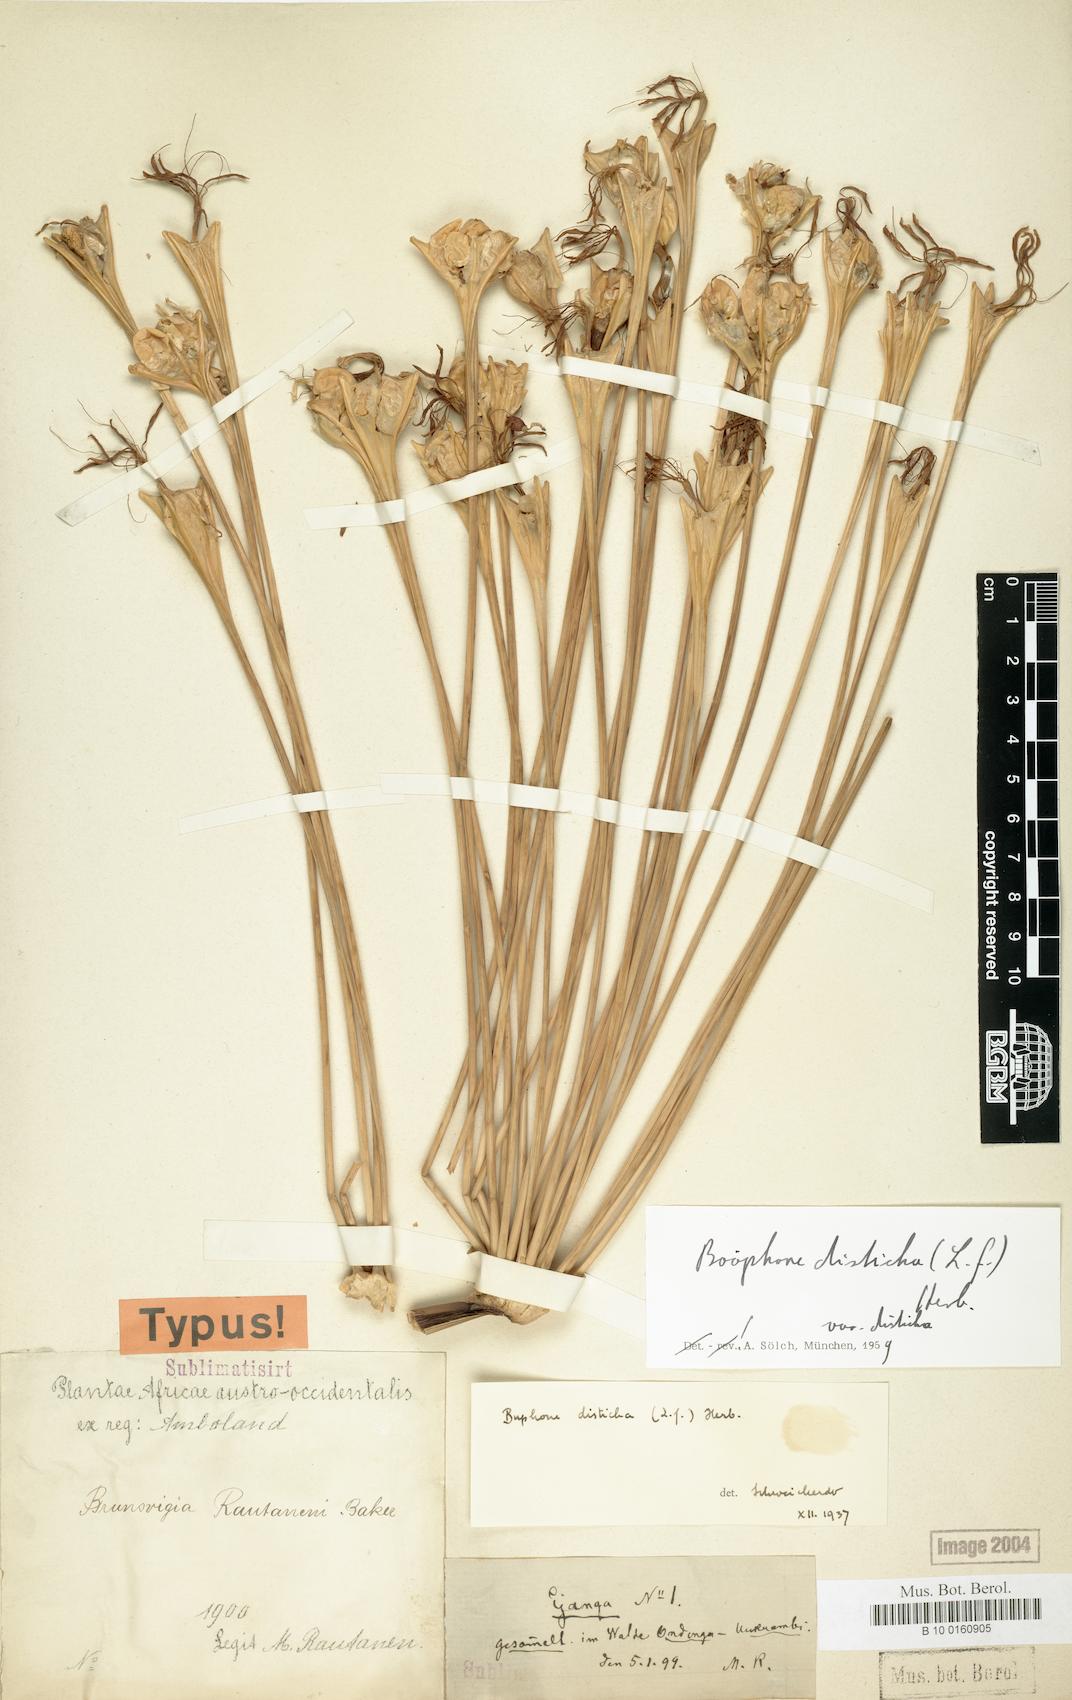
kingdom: Plantae
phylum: Tracheophyta
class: Liliopsida
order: Asparagales
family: Amaryllidaceae
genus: Boophone
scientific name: Boophone disticha
